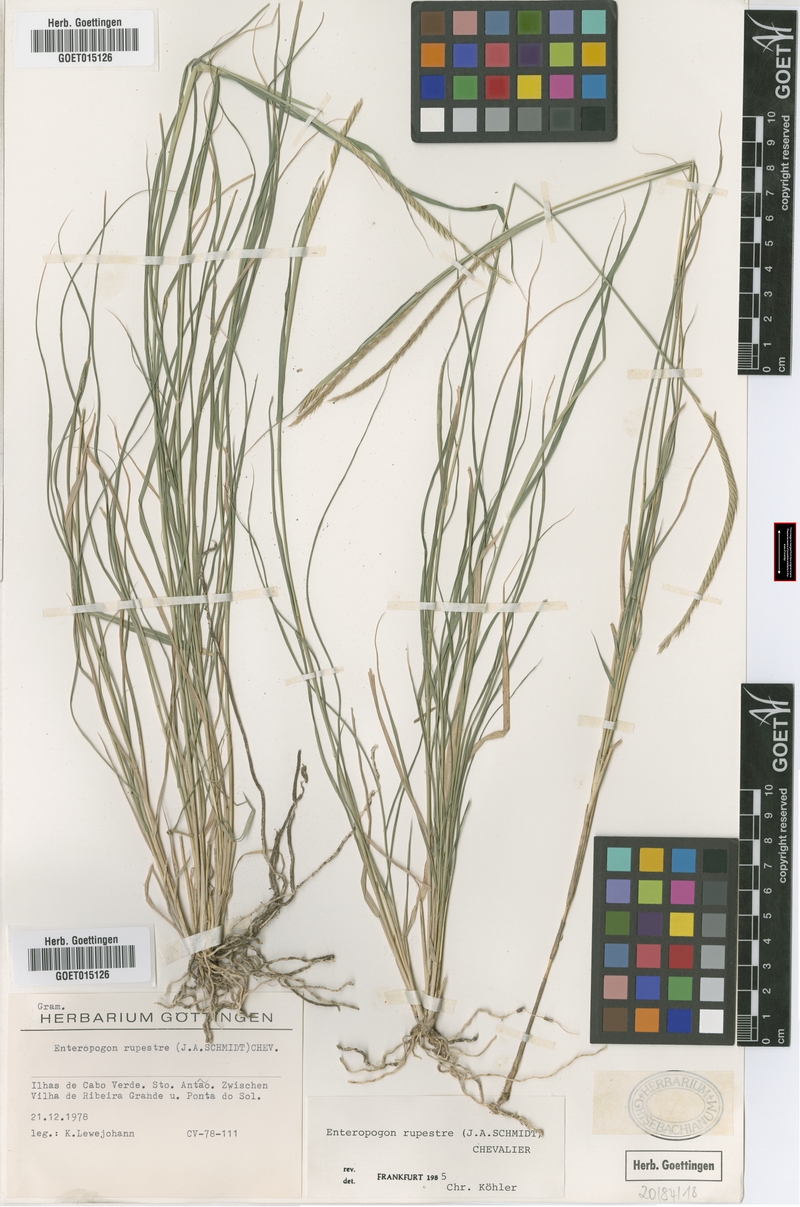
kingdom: Plantae
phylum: Tracheophyta
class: Liliopsida
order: Poales
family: Poaceae
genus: Enteropogon
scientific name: Enteropogon rupestris
